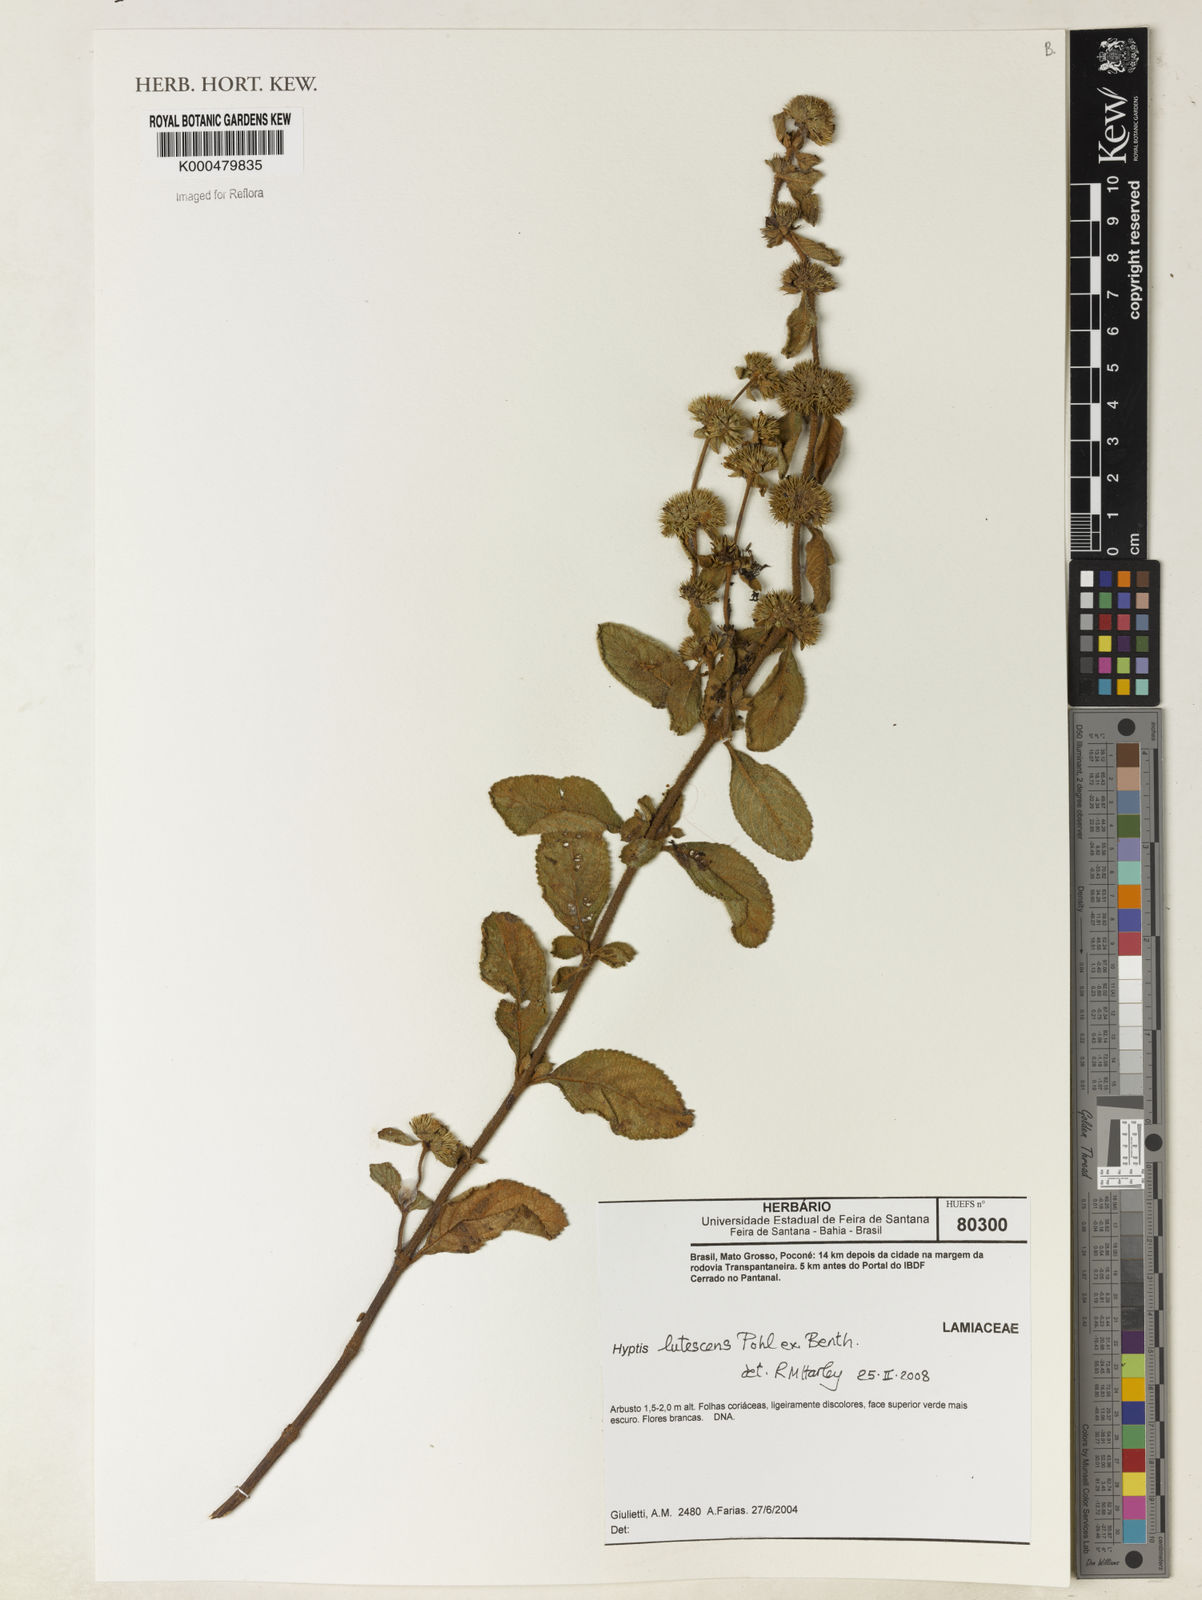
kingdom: Plantae
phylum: Tracheophyta
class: Magnoliopsida
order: Lamiales
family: Lamiaceae
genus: Hyptis
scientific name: Hyptis lutescens
